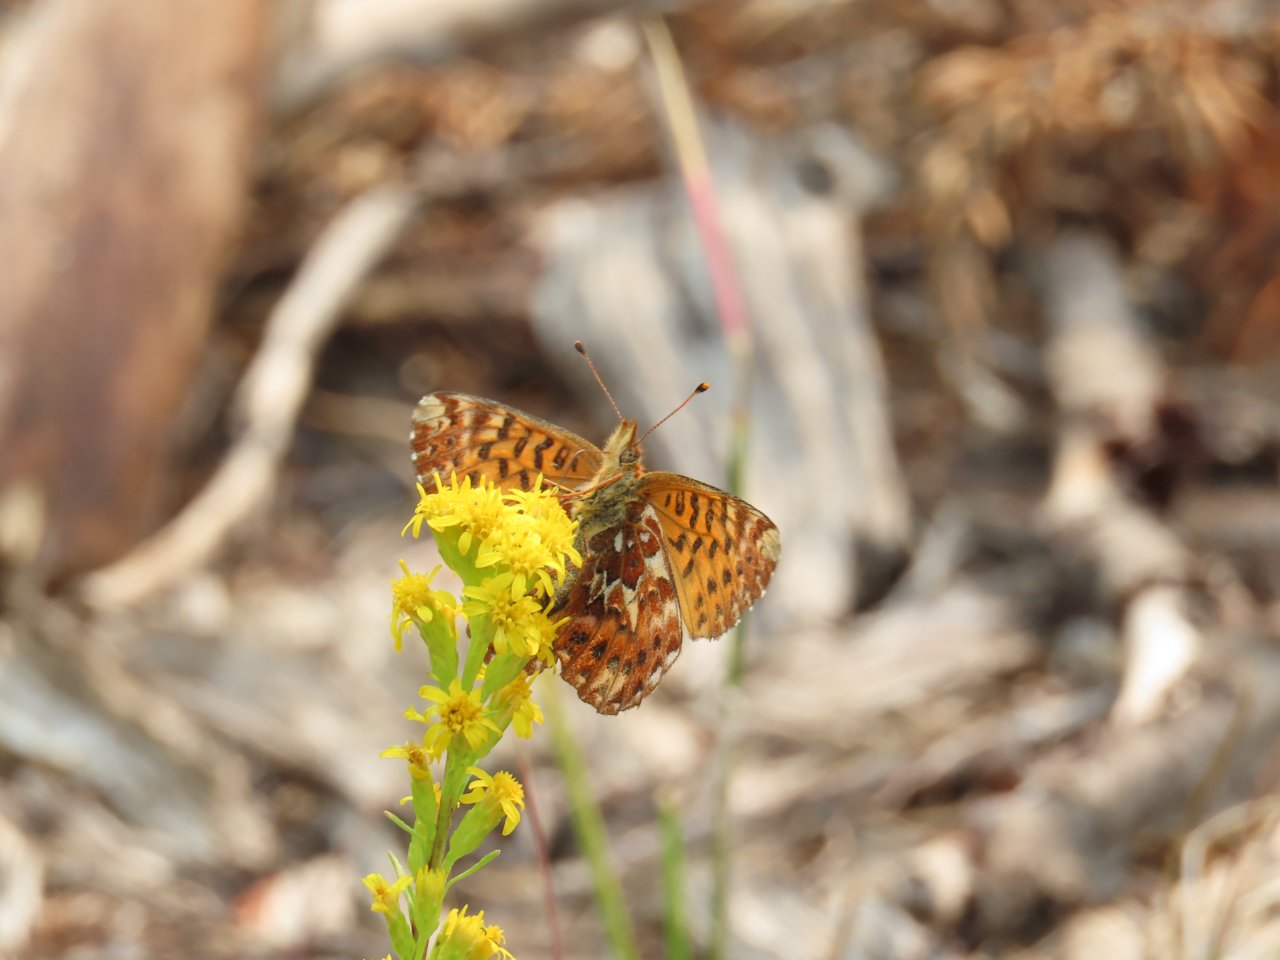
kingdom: Animalia
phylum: Arthropoda
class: Insecta
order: Lepidoptera
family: Nymphalidae
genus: Boloria
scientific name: Boloria freija
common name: Freija Fritillary
